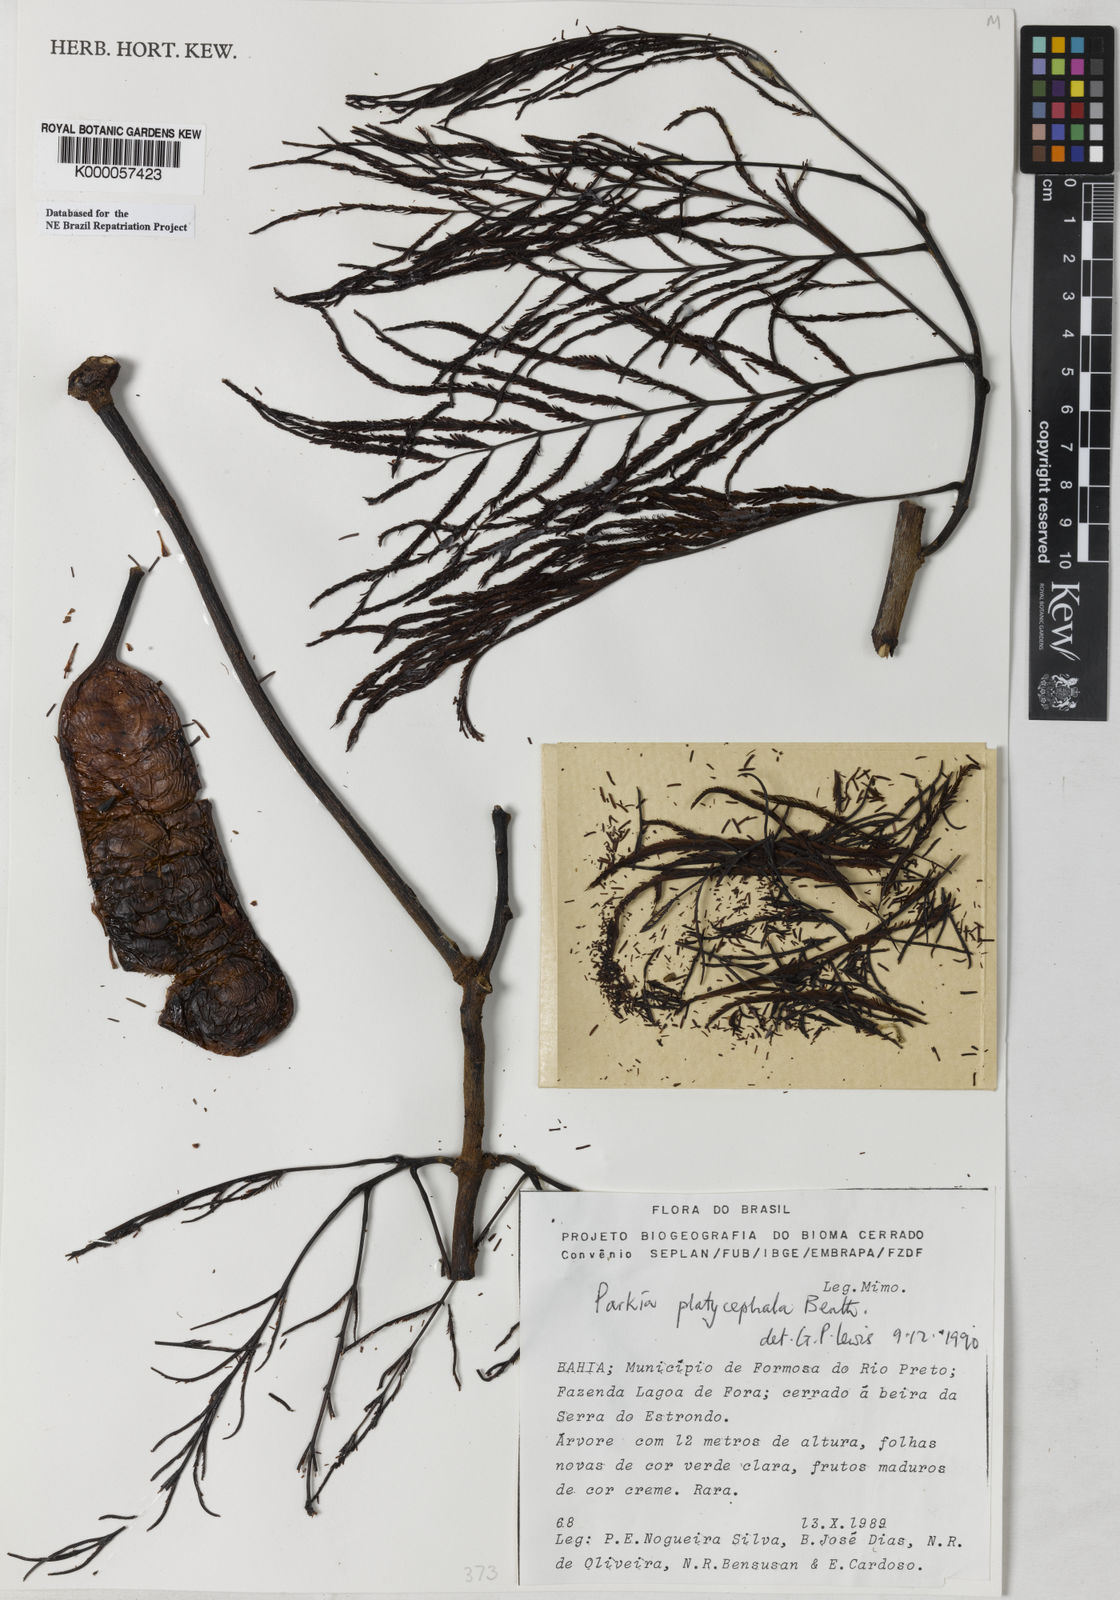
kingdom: Plantae
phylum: Tracheophyta
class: Magnoliopsida
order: Fabales
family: Fabaceae
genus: Parkia
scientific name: Parkia platycephala
